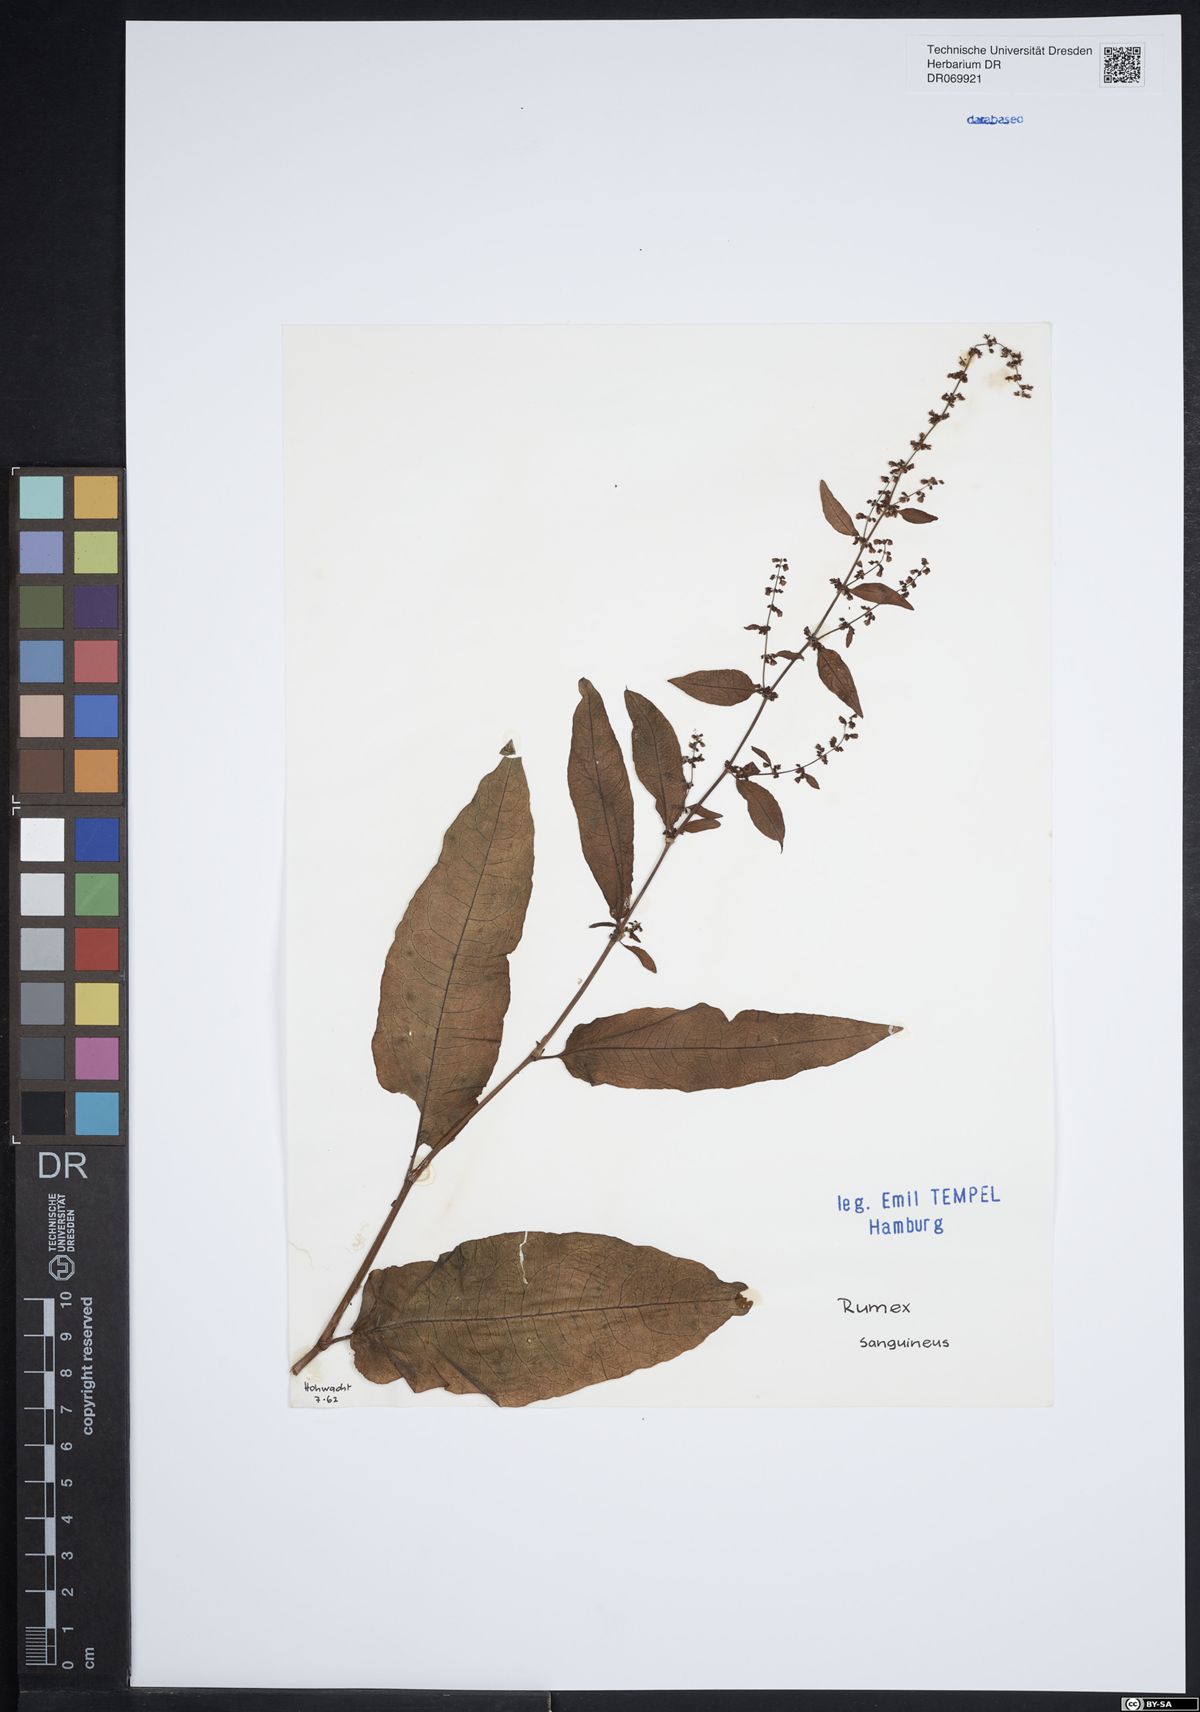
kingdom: Plantae
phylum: Tracheophyta
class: Magnoliopsida
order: Caryophyllales
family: Polygonaceae
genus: Rumex
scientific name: Rumex sanguineus
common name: Wood dock
